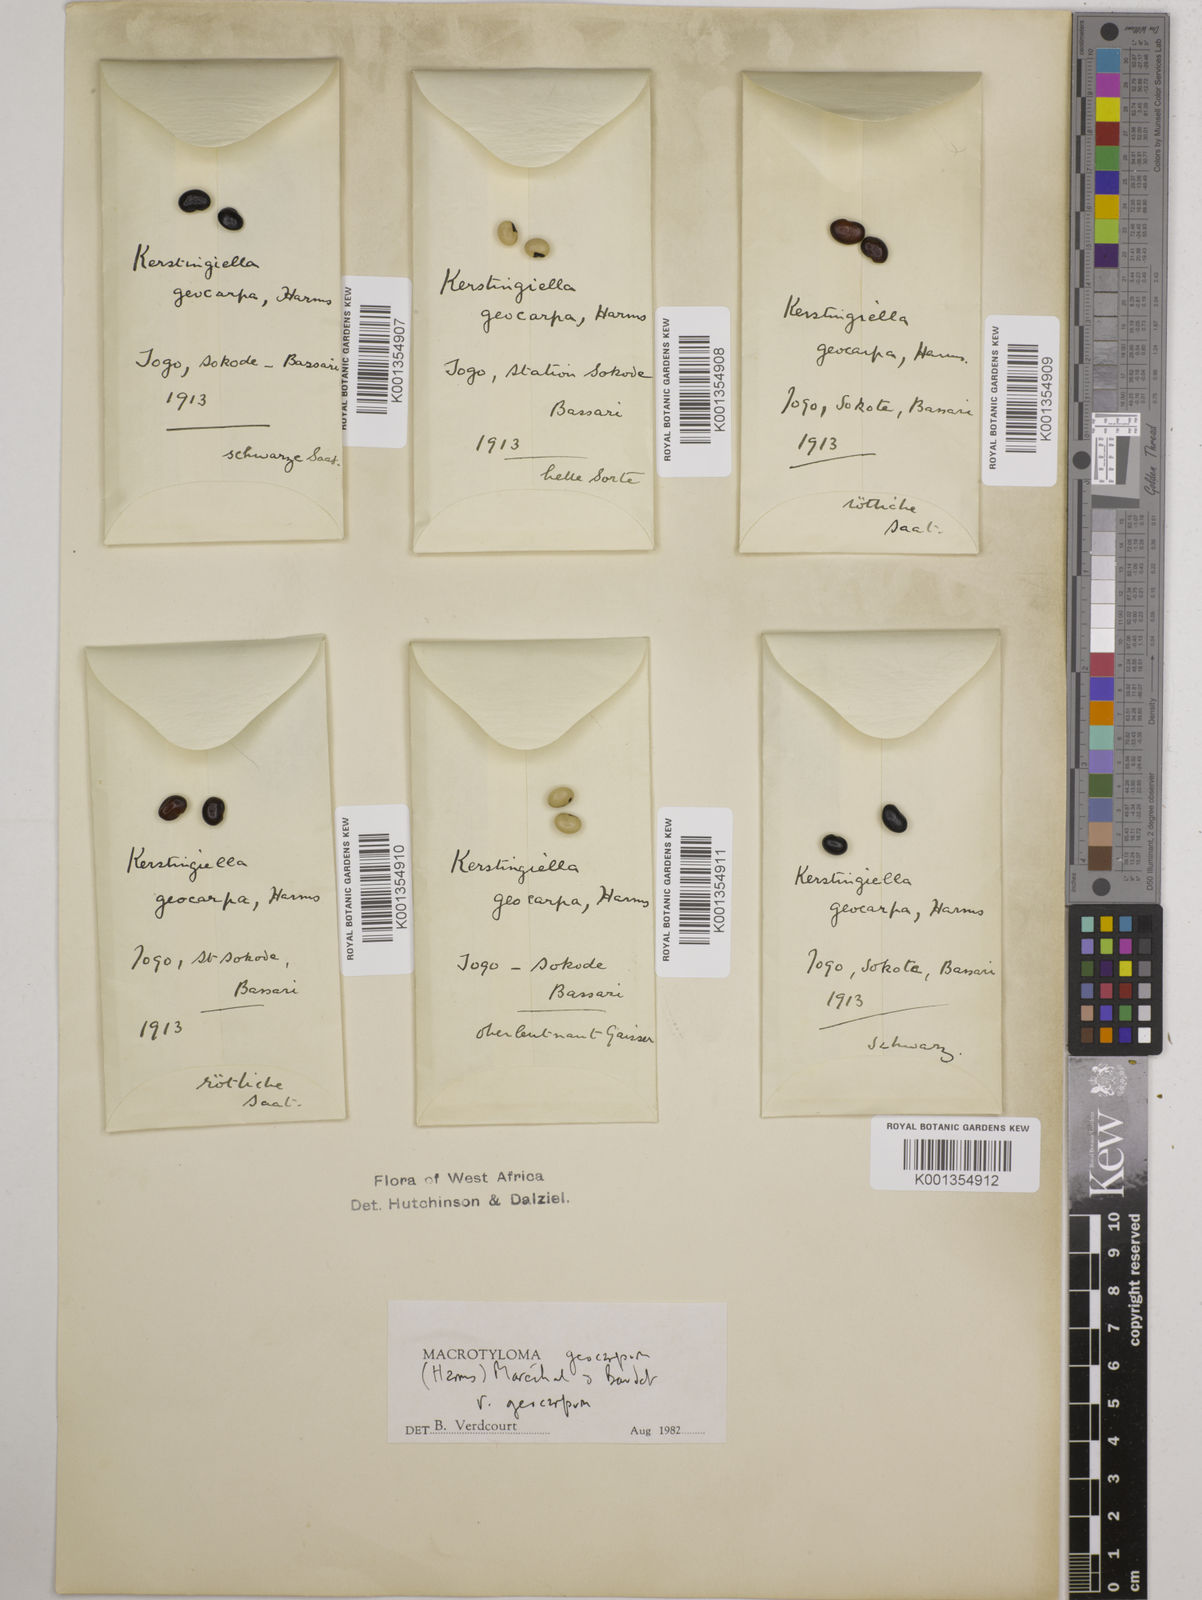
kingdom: Plantae
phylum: Tracheophyta
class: Magnoliopsida
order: Fabales
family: Fabaceae
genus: Macrotyloma
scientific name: Macrotyloma geocarpum
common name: Ground-bean
